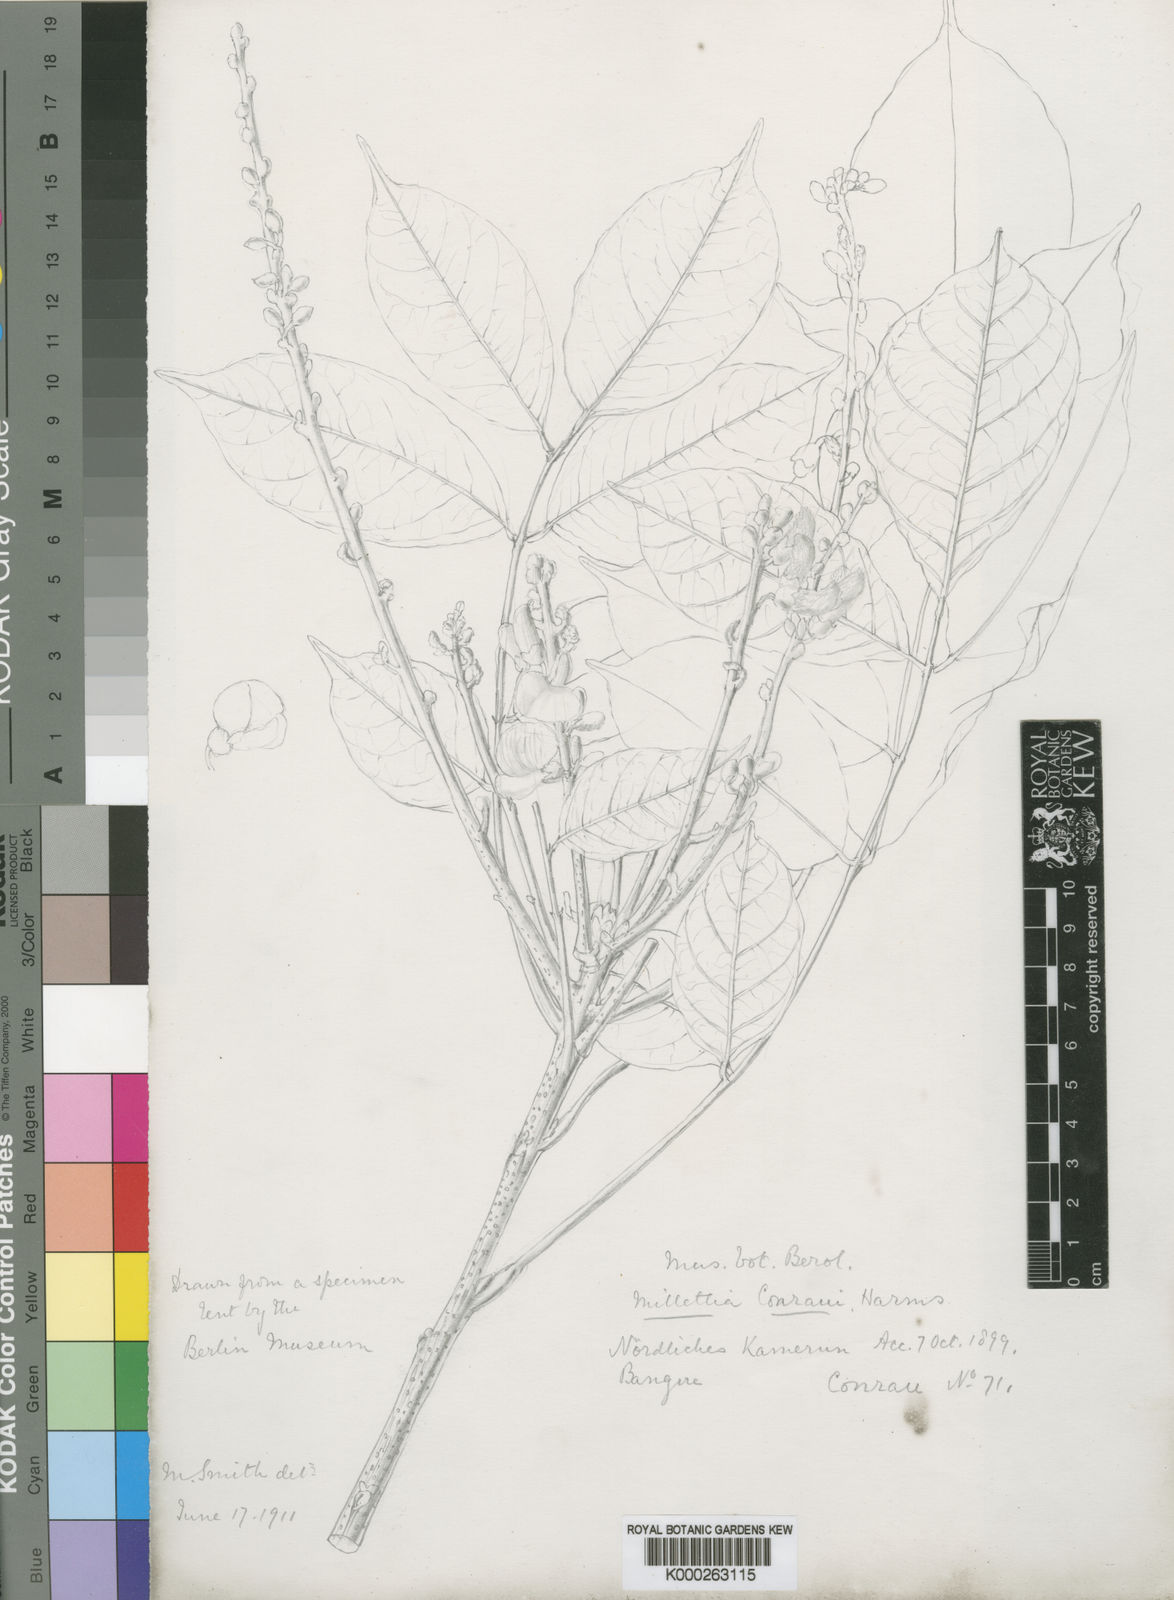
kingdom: Plantae
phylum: Tracheophyta
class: Magnoliopsida
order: Fabales
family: Fabaceae
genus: Millettia
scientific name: Millettia conraui
